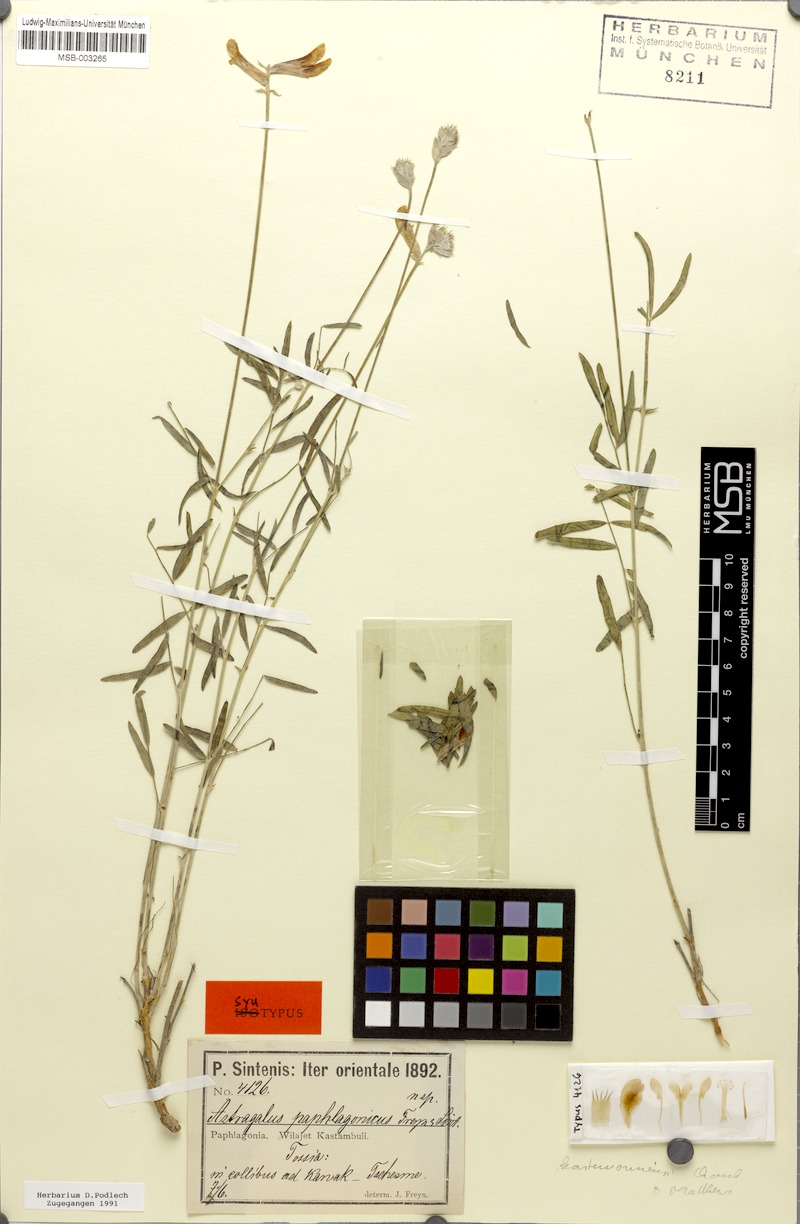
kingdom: Plantae
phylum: Tracheophyta
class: Magnoliopsida
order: Fabales
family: Fabaceae
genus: Astragalus
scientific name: Astragalus kastamonuensis
